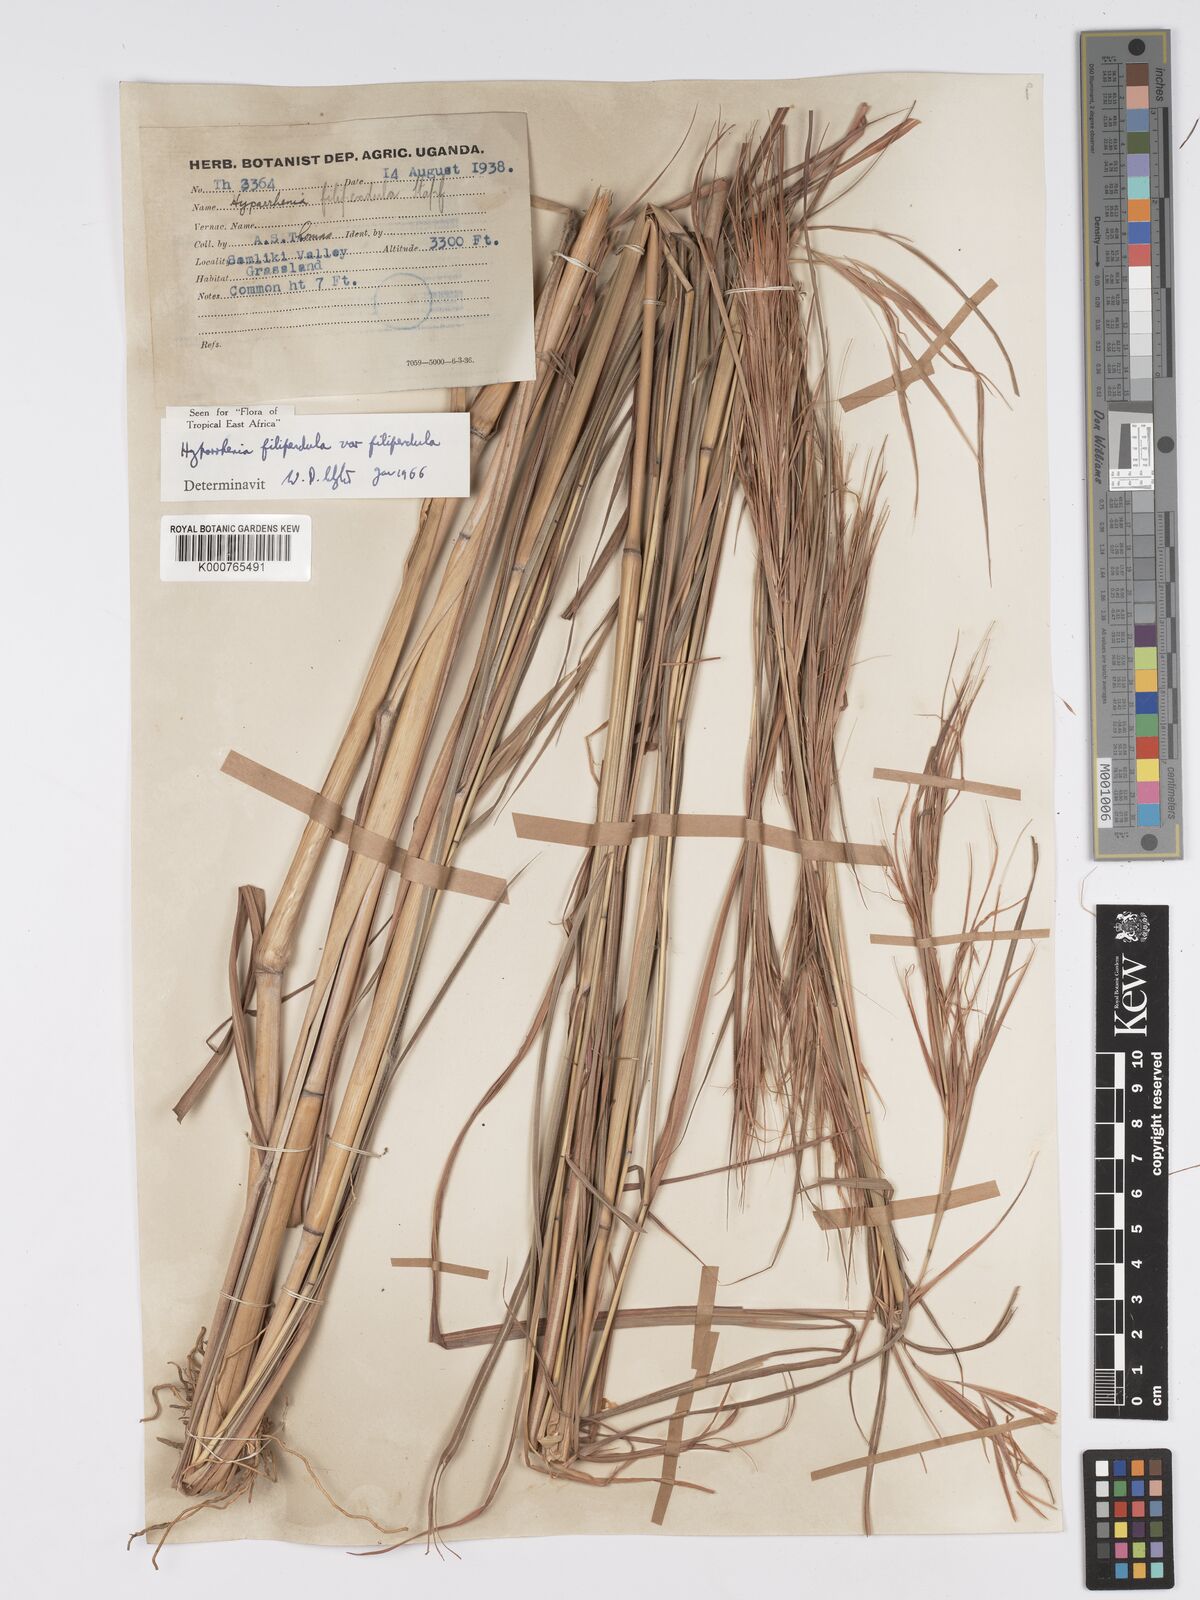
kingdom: Plantae
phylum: Tracheophyta
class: Liliopsida
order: Poales
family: Poaceae
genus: Hyparrhenia
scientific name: Hyparrhenia filipendula
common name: Tambookie grass
